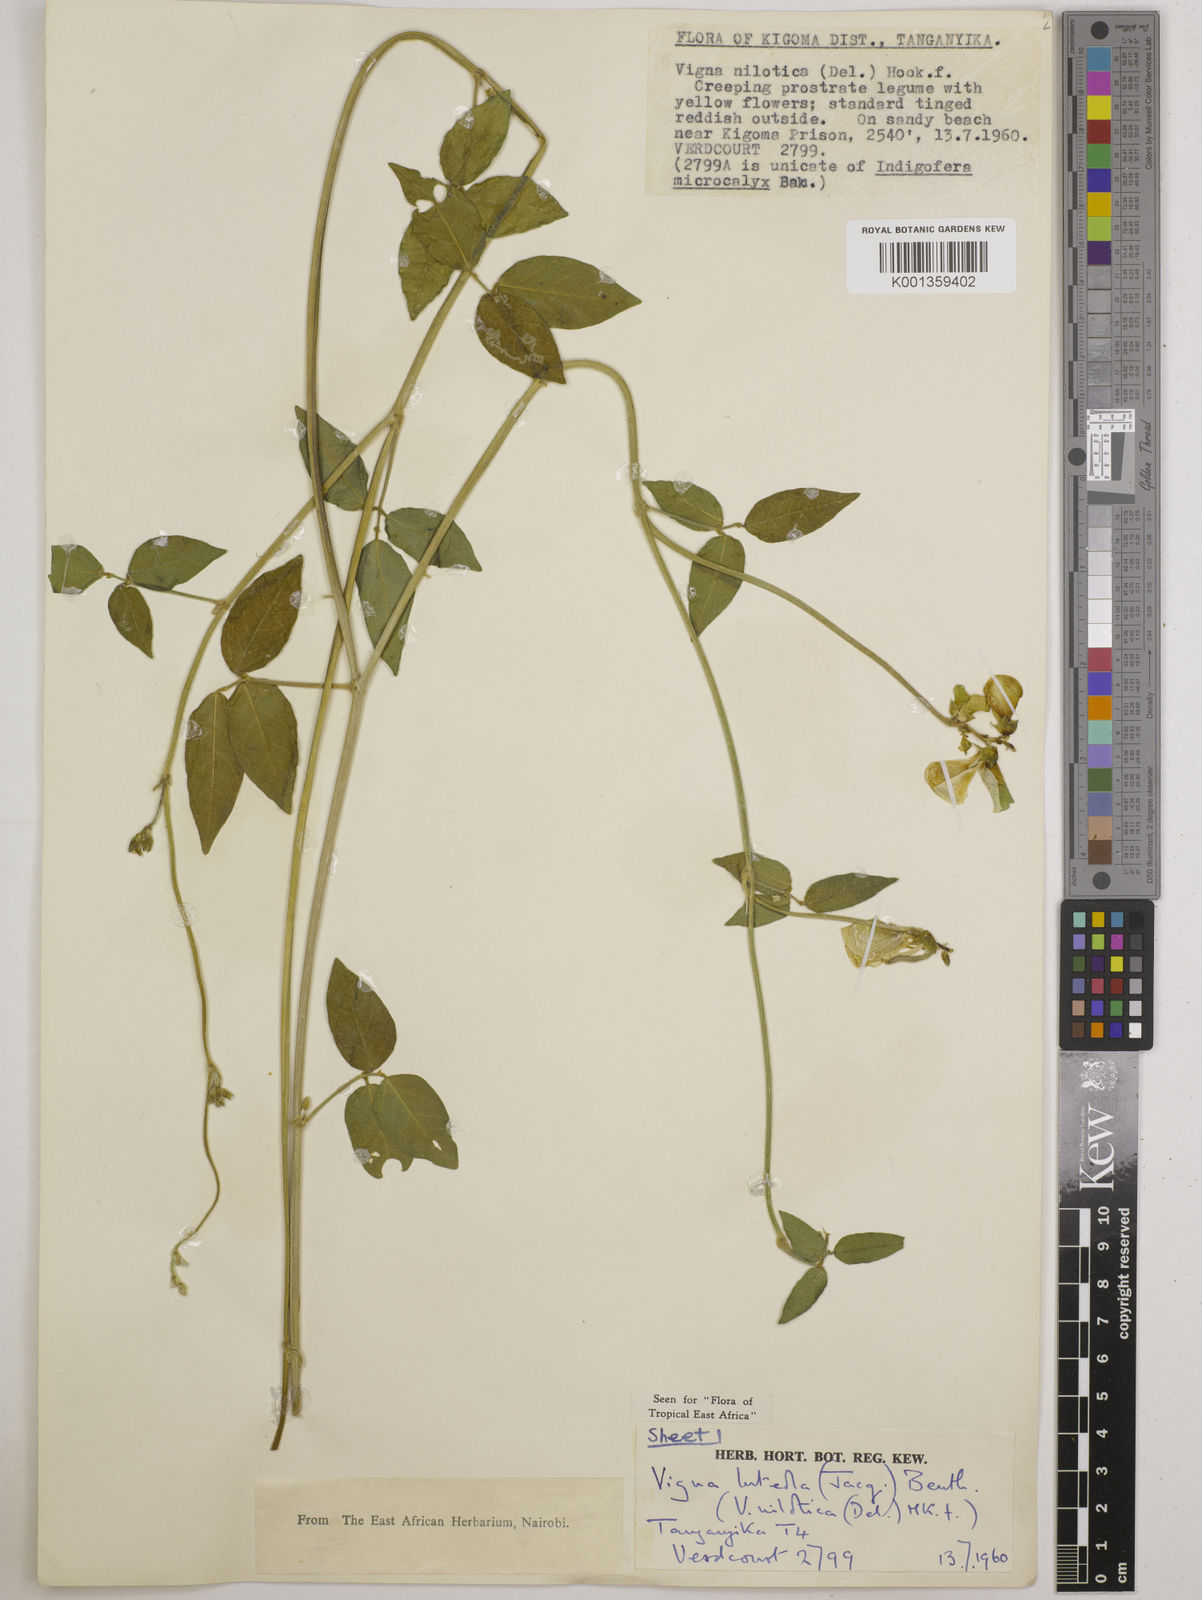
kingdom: Plantae
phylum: Tracheophyta
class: Magnoliopsida
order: Fabales
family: Fabaceae
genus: Vigna
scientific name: Vigna luteola
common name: Hairypod cowpea
